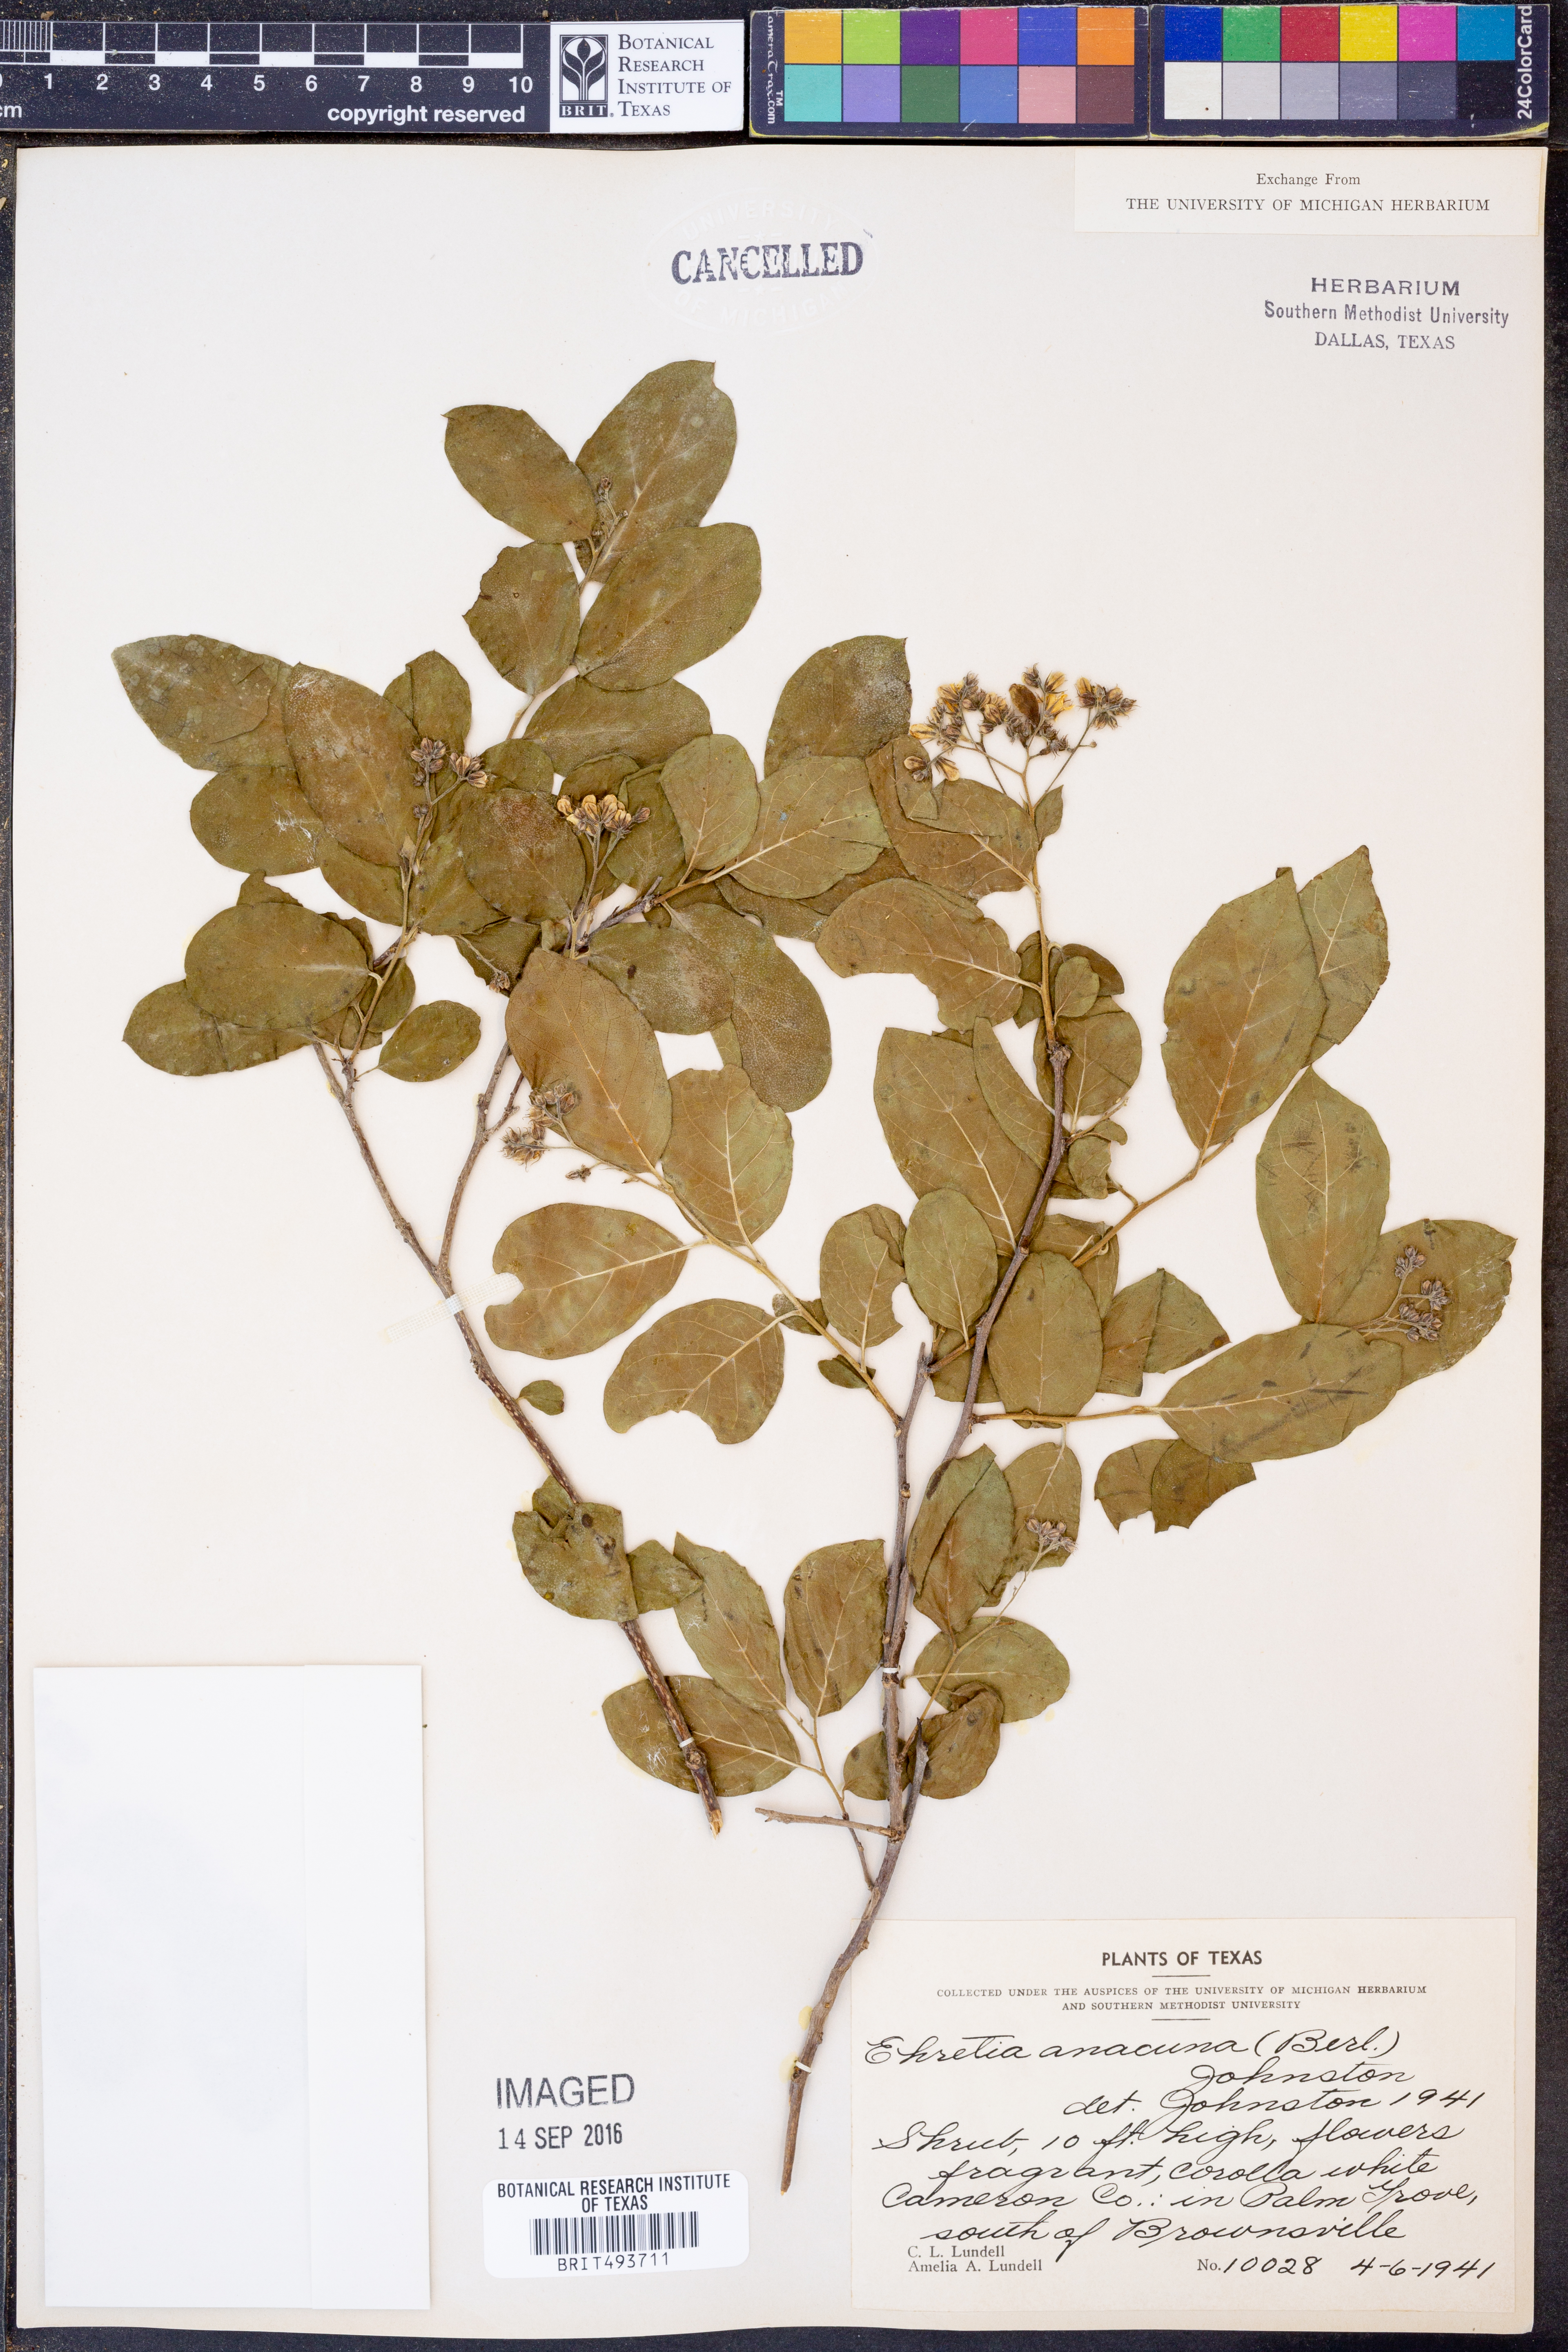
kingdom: Plantae
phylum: Tracheophyta
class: Magnoliopsida
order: Boraginales
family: Ehretiaceae
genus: Ehretia
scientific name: Ehretia anacua
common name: Sugarberry
